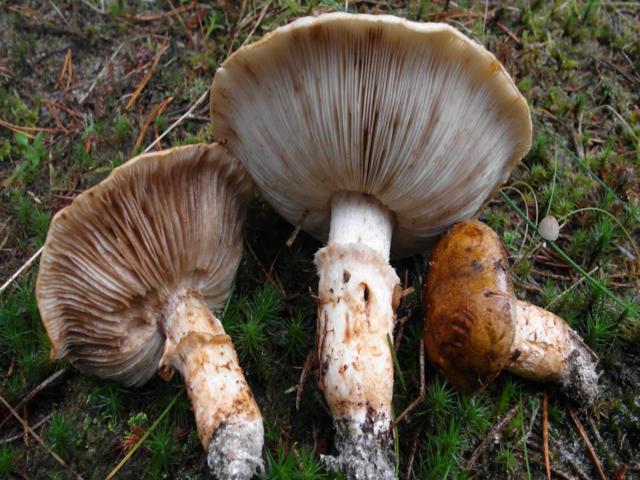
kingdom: Fungi
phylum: Basidiomycota
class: Agaricomycetes
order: Agaricales
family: Tricholomataceae
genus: Tricholoma
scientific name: Tricholoma focale
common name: halsbånd-ridderhat
